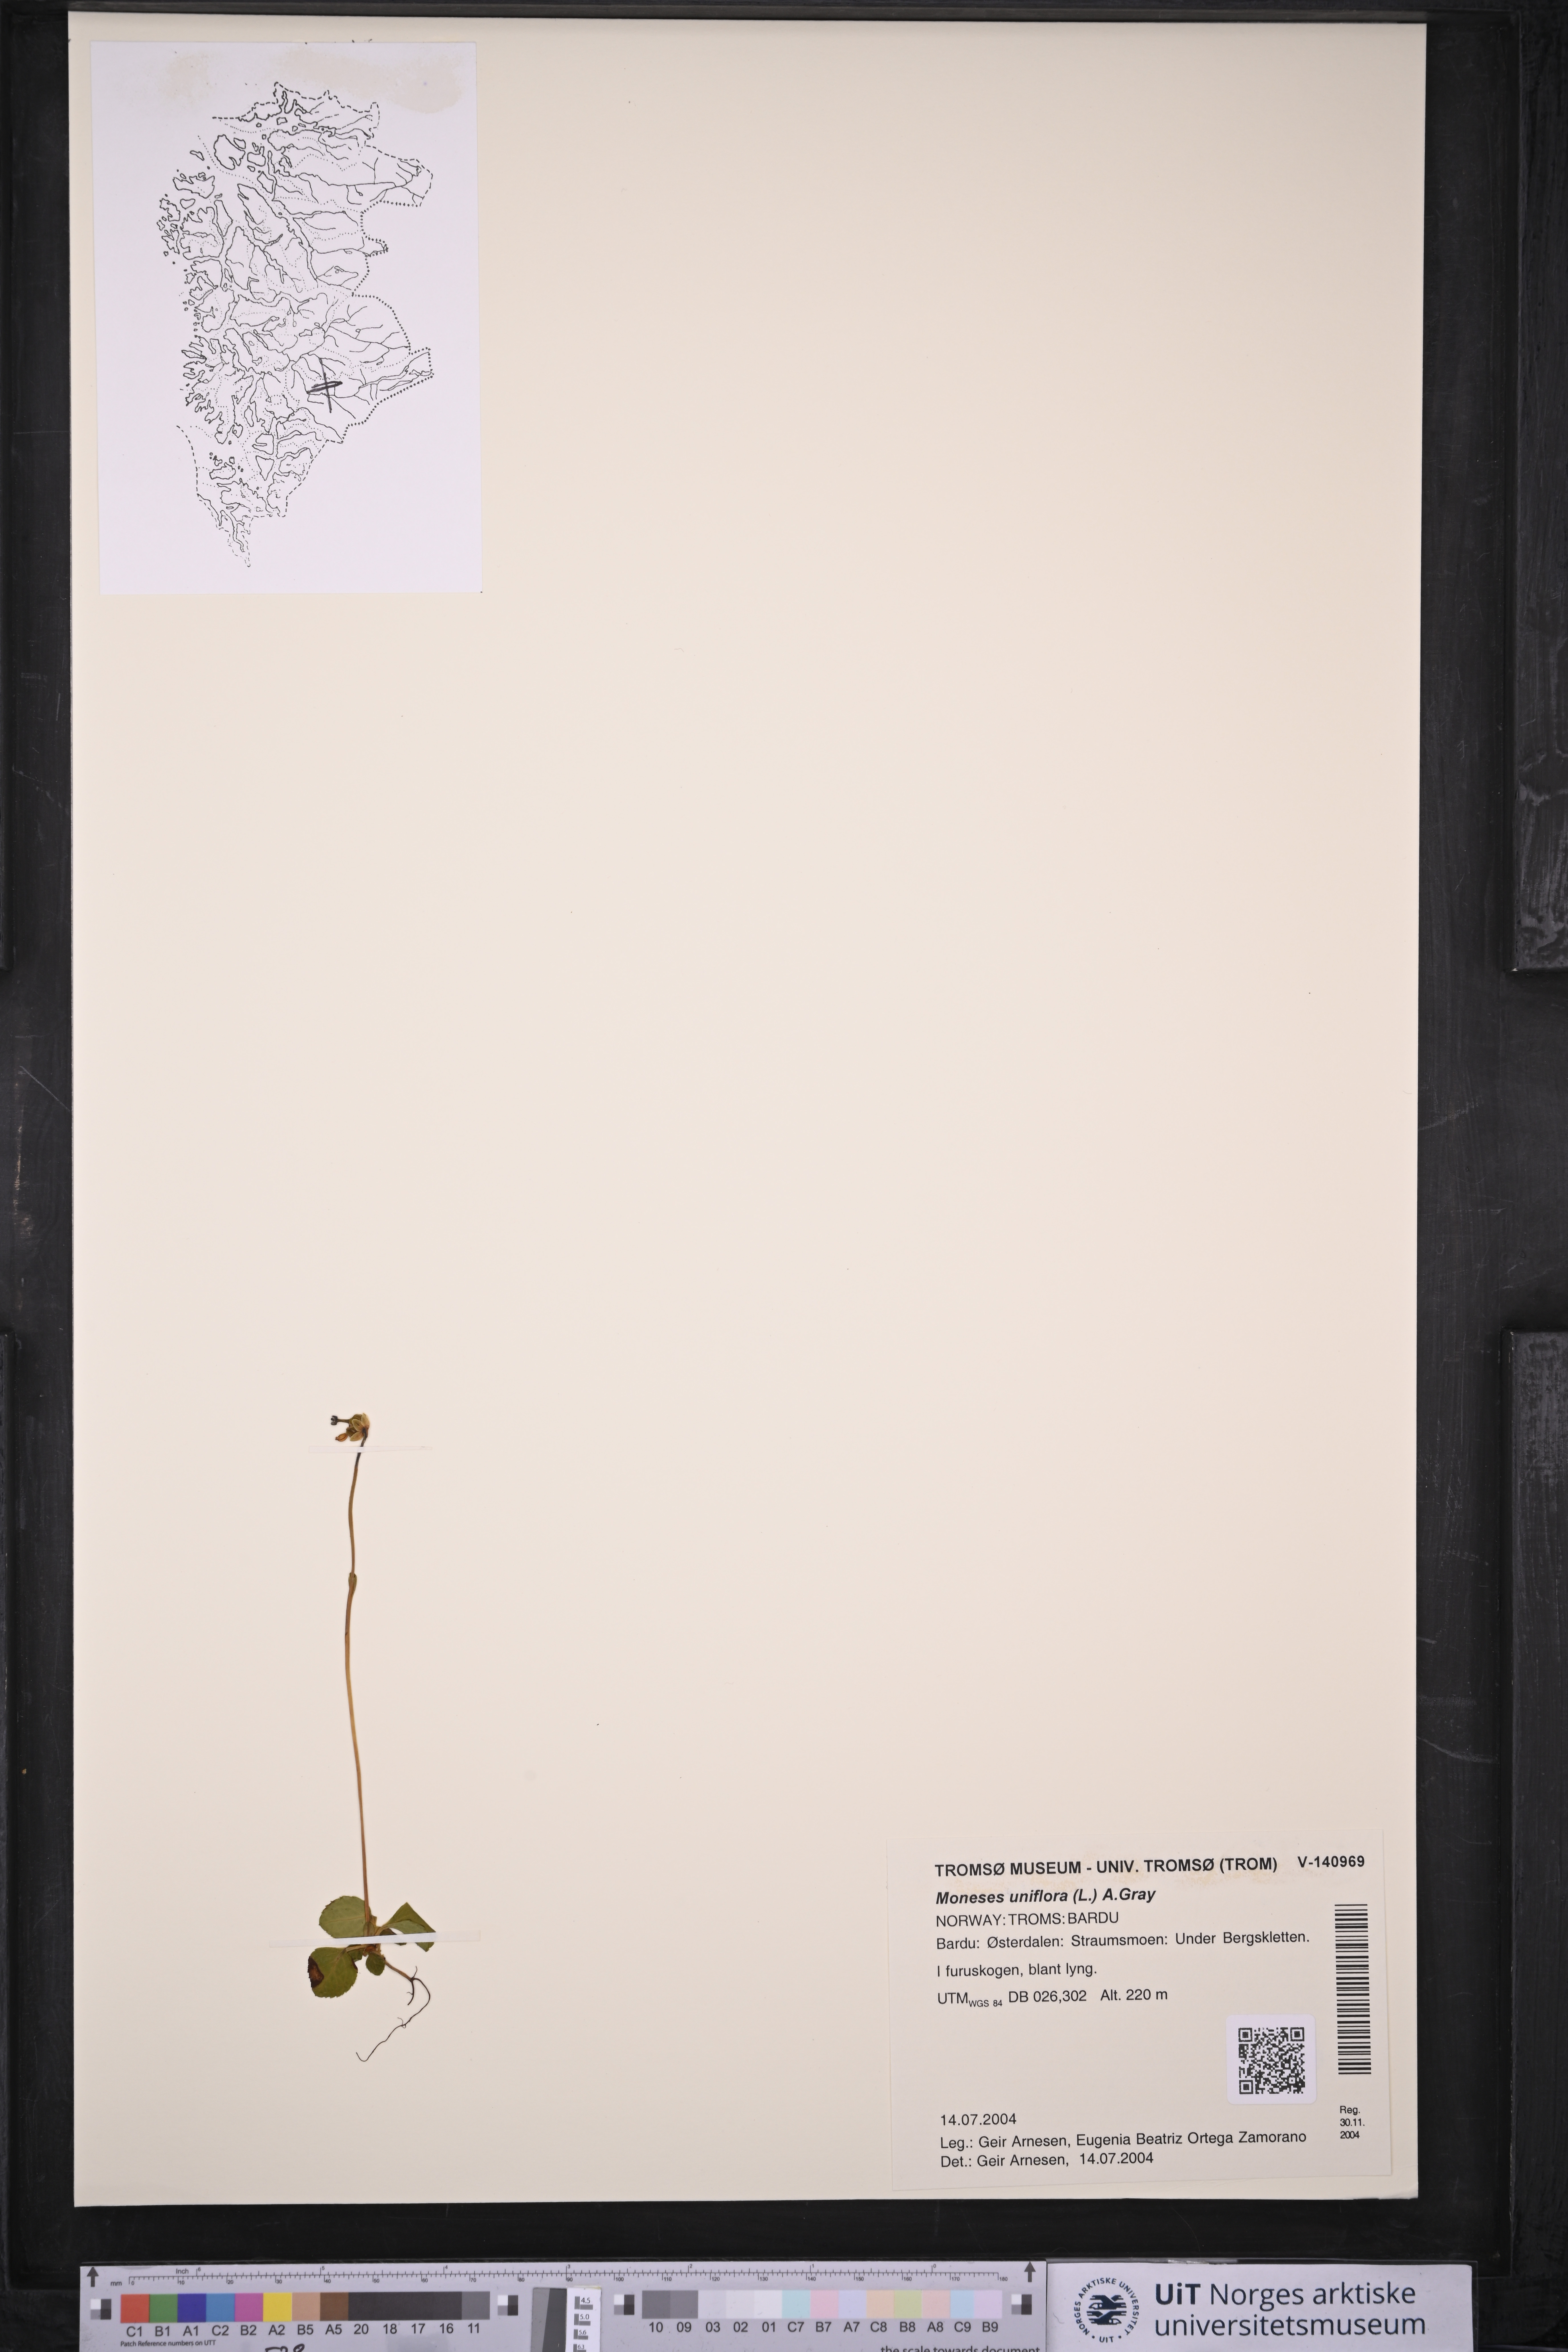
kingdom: Plantae
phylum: Tracheophyta
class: Magnoliopsida
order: Ericales
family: Ericaceae
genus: Moneses
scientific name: Moneses uniflora
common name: One-flowered wintergreen
